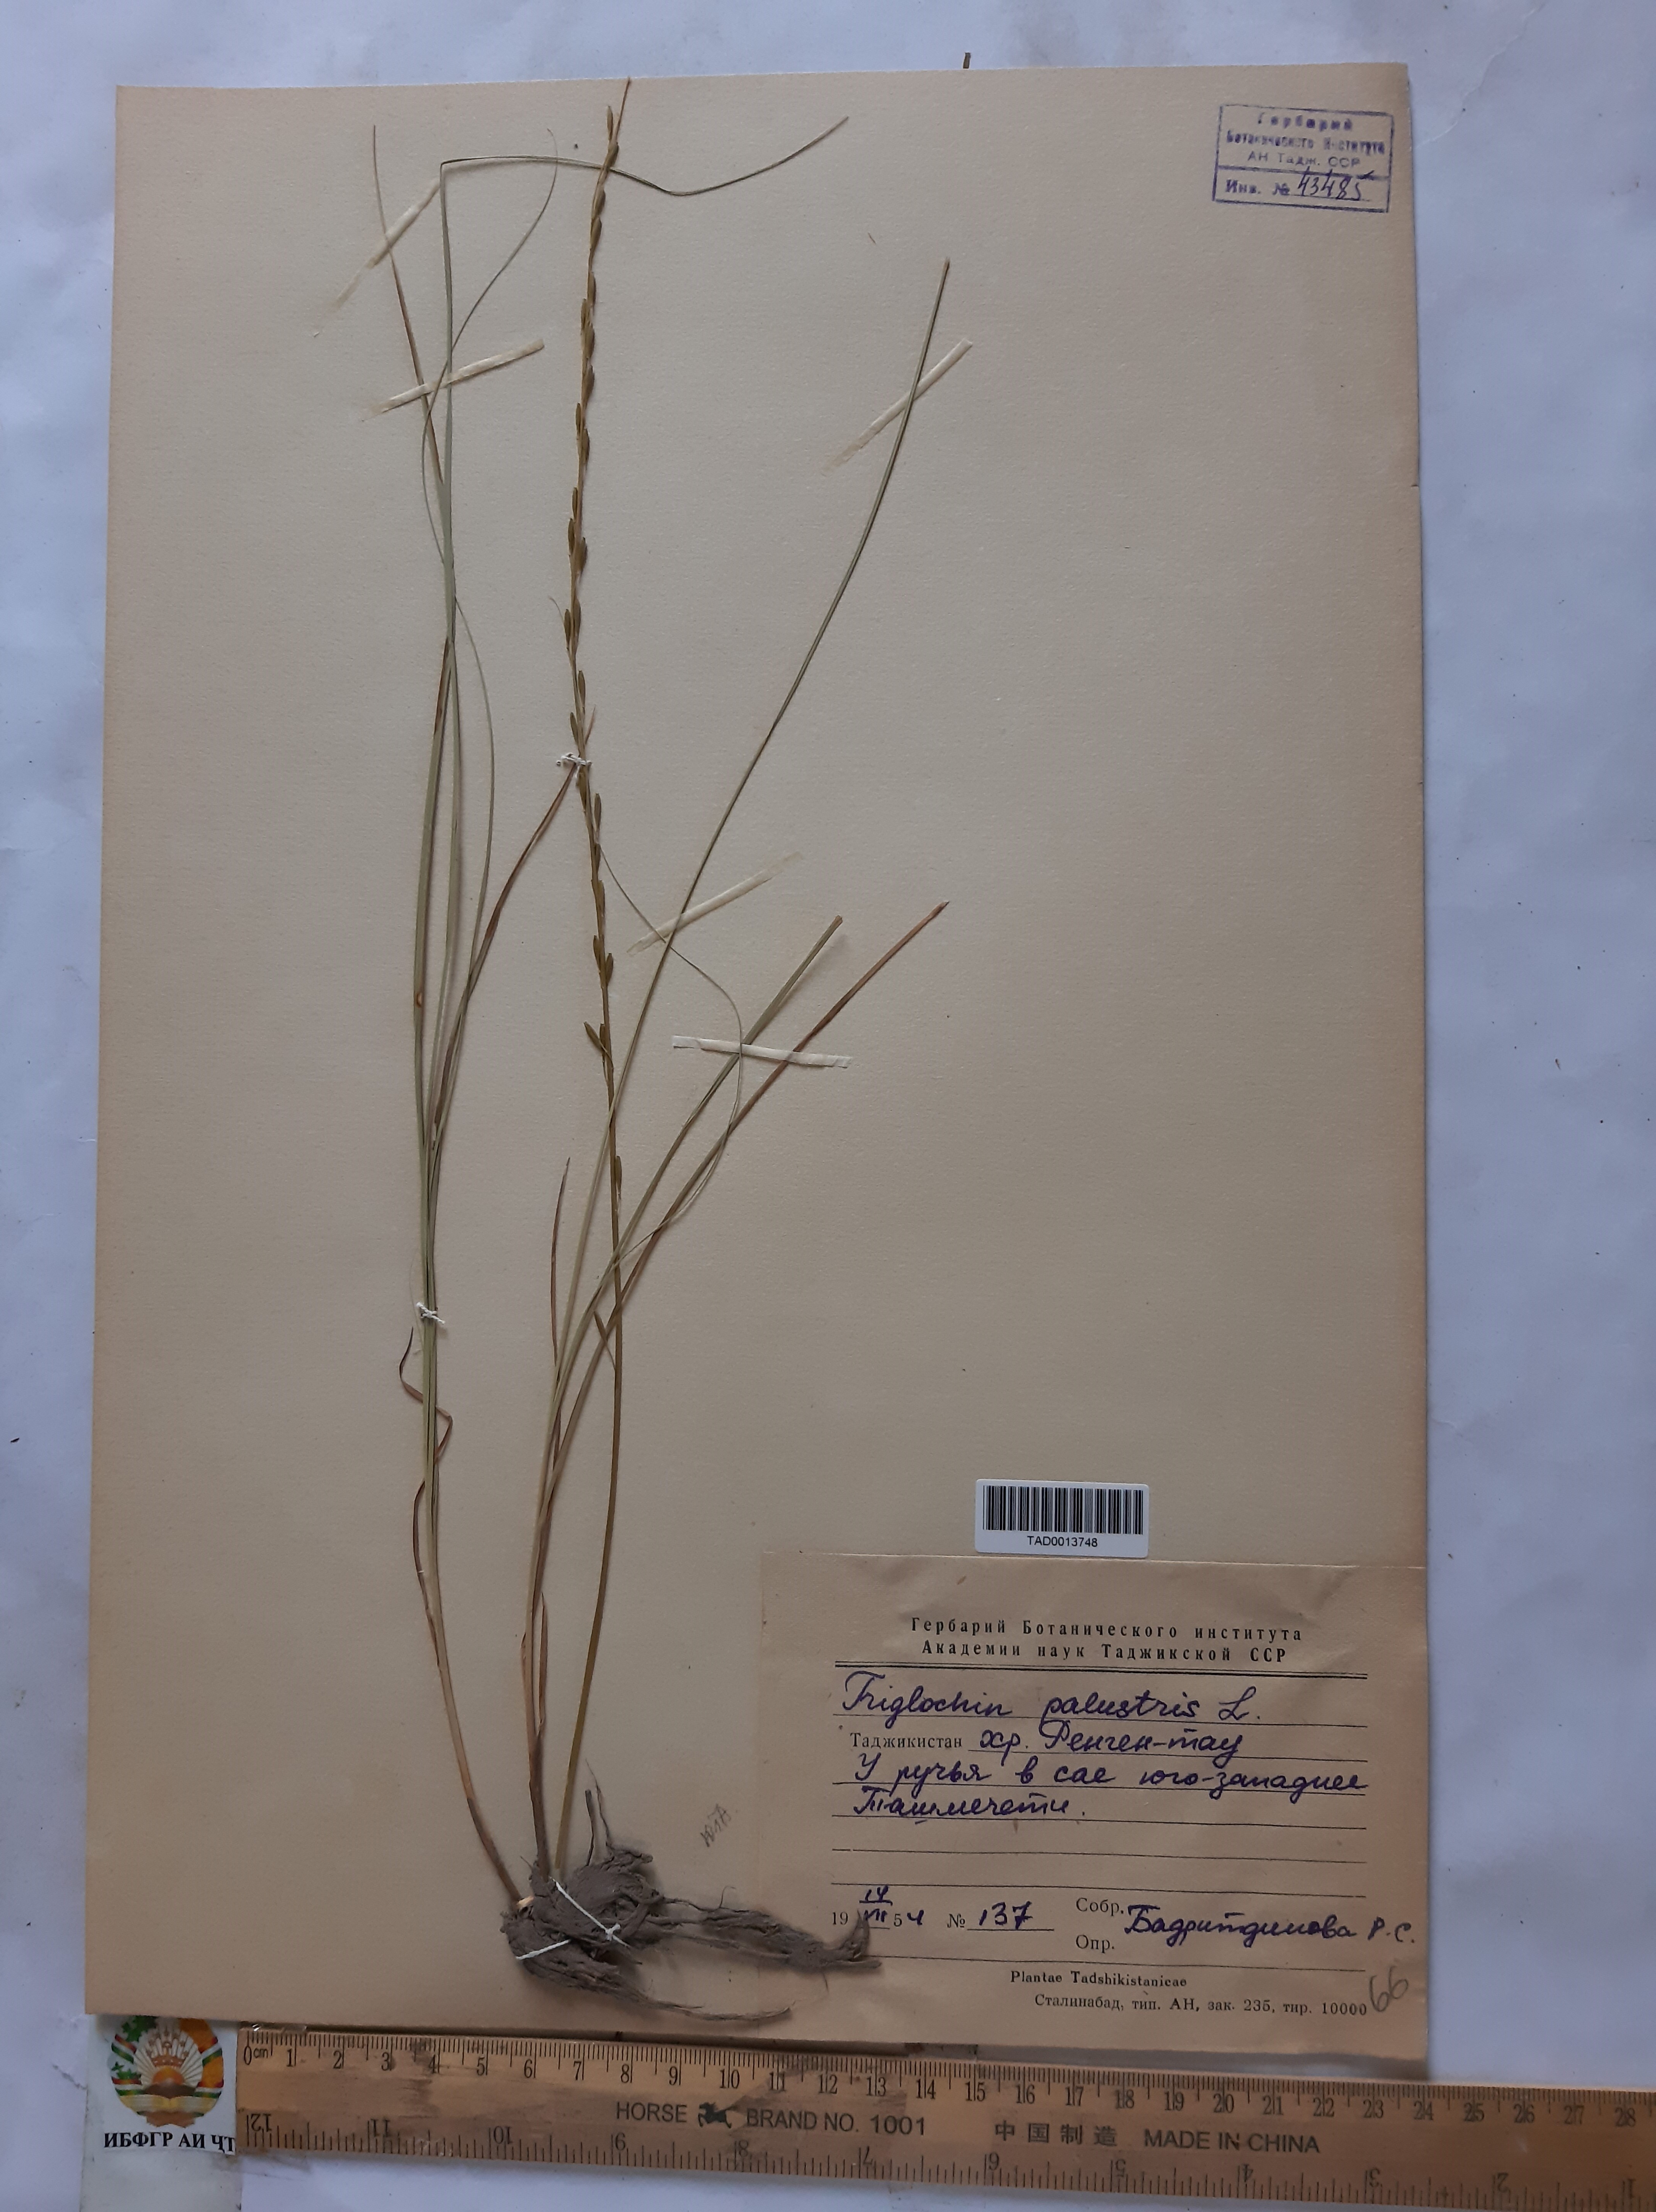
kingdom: Plantae
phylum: Tracheophyta
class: Liliopsida
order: Alismatales
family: Juncaginaceae
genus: Triglochin
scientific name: Triglochin palustris
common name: Marsh arrowgrass
